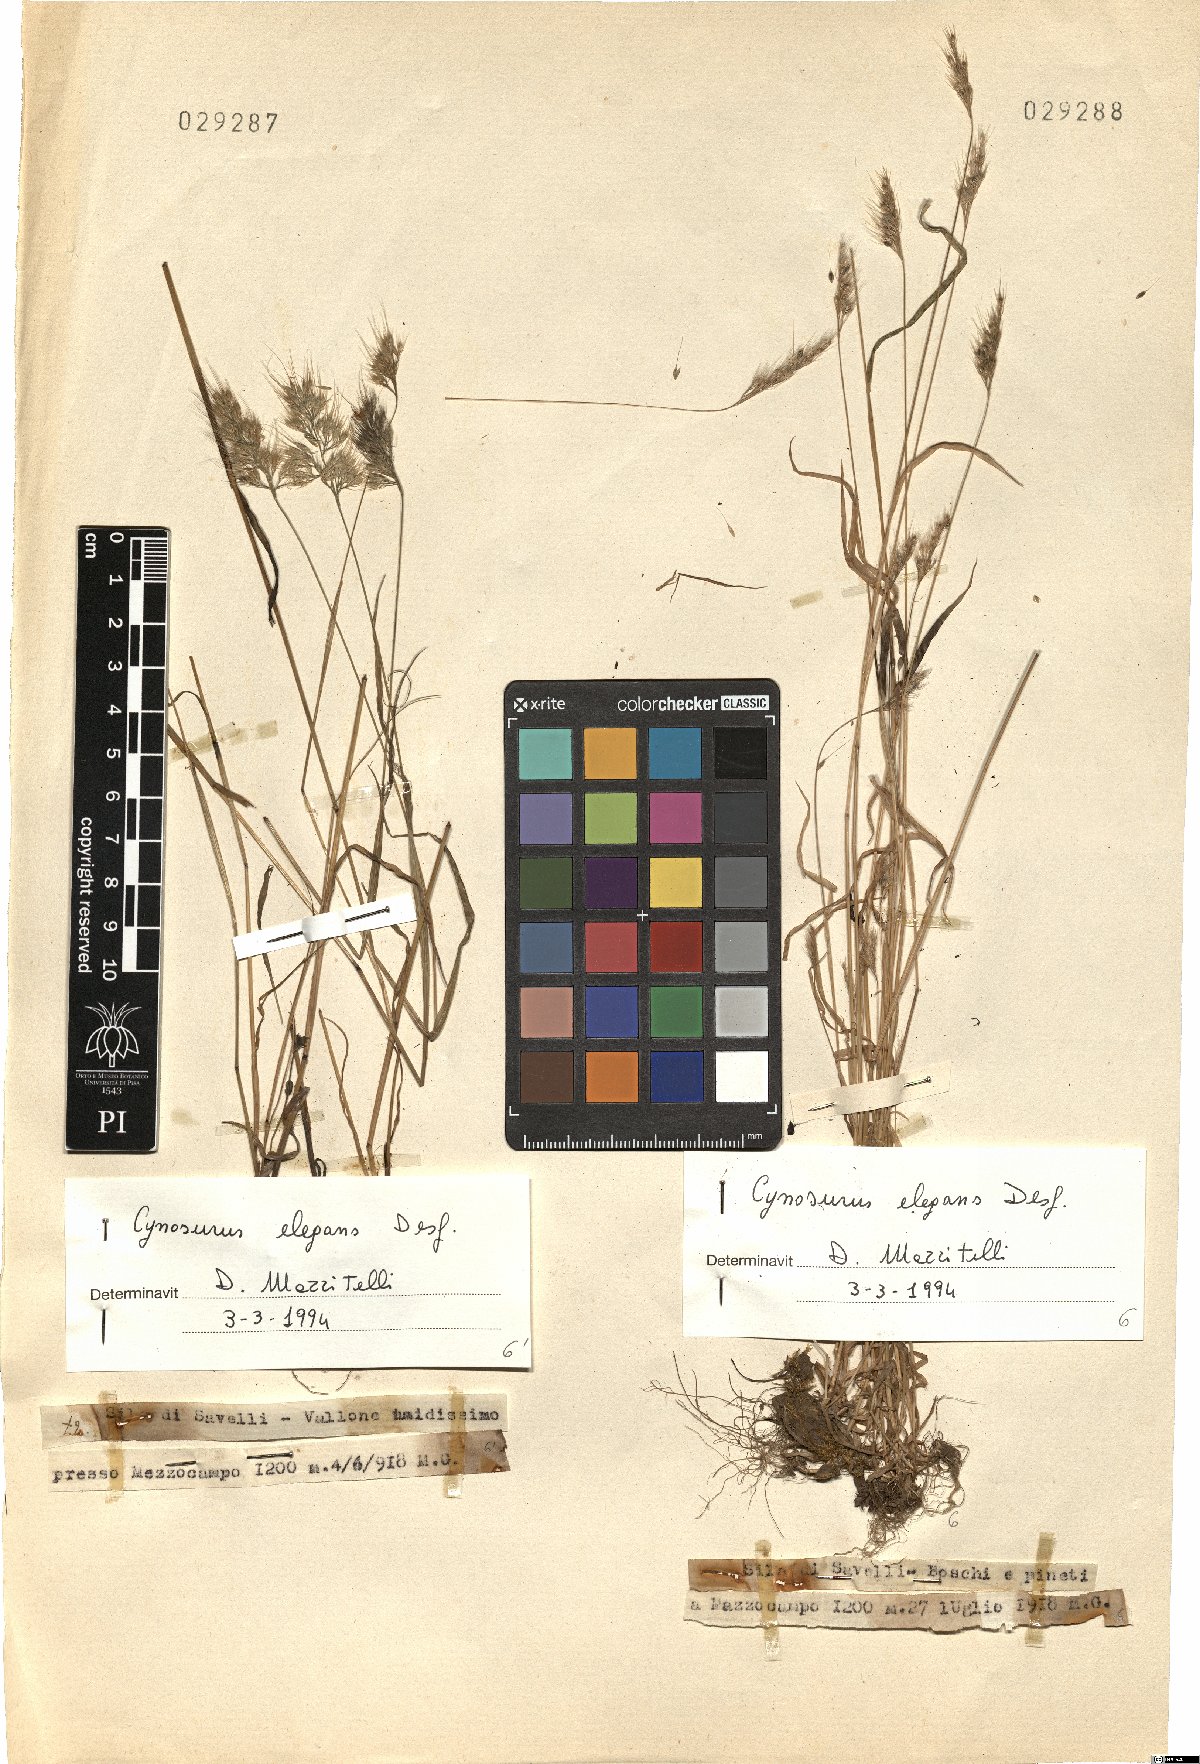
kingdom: Plantae
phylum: Tracheophyta
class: Liliopsida
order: Poales
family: Poaceae
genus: Cynosurus
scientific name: Cynosurus elegans
